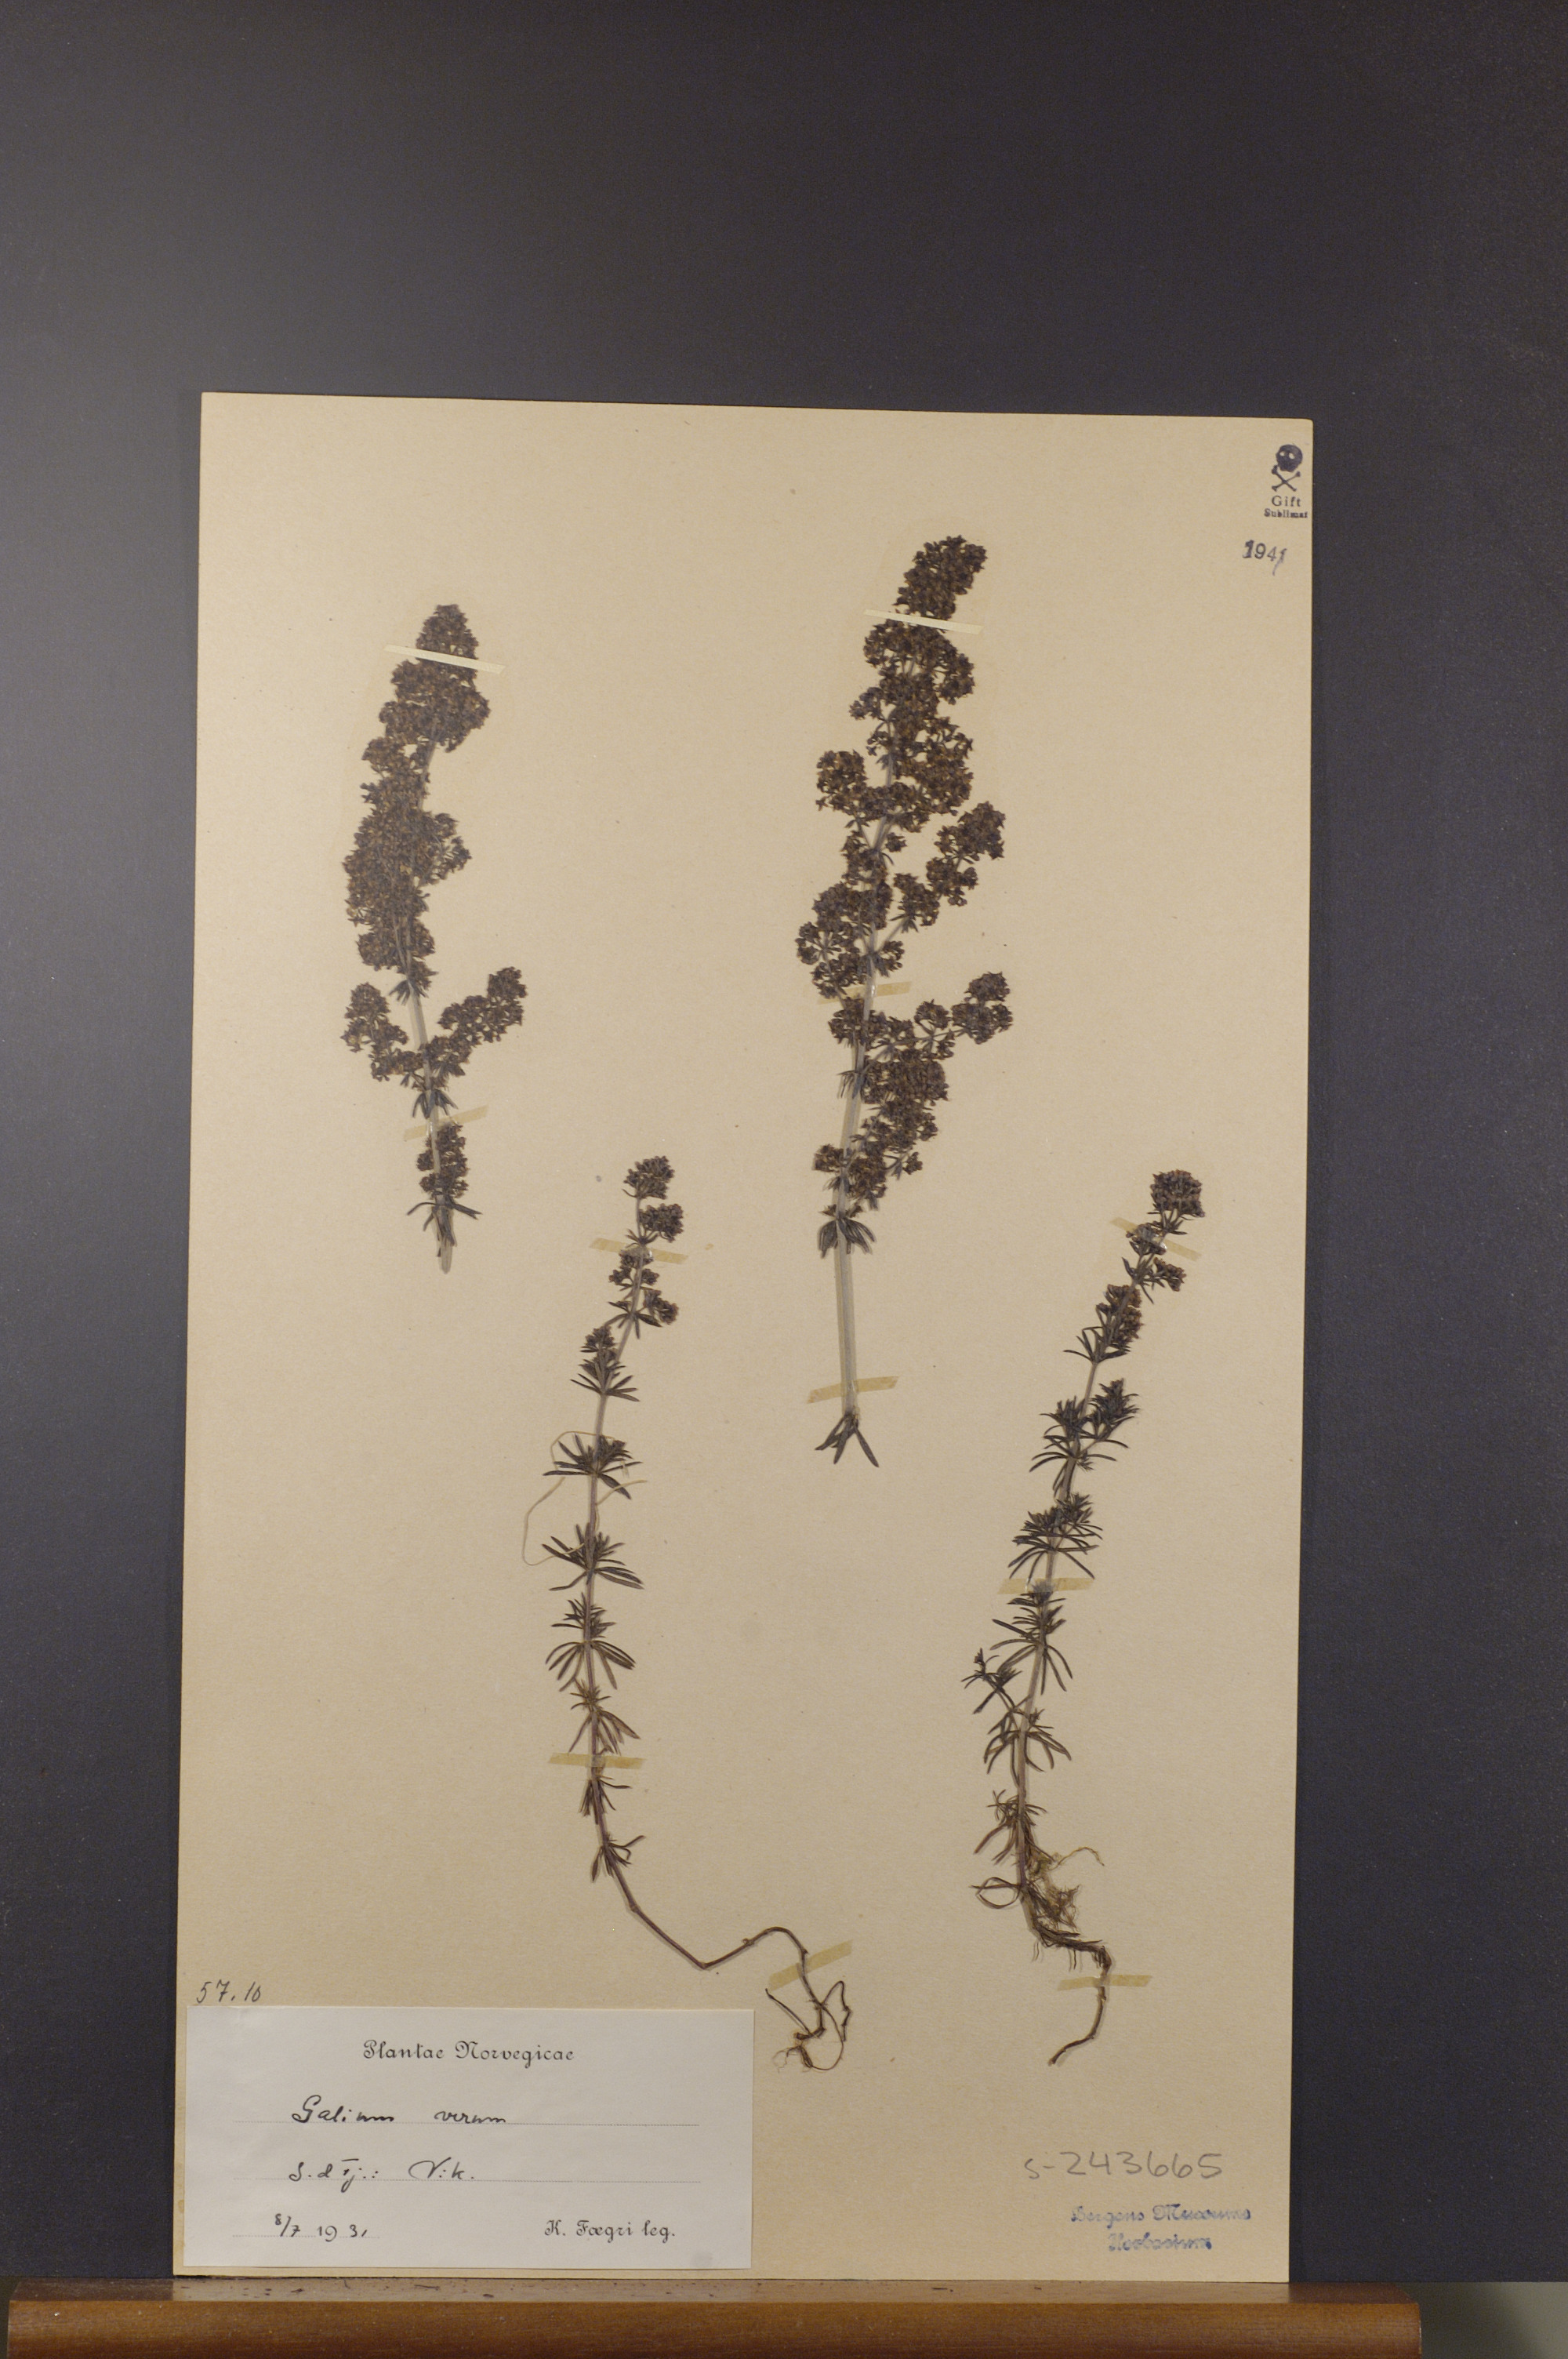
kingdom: Plantae
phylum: Tracheophyta
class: Magnoliopsida
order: Gentianales
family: Rubiaceae
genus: Galium
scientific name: Galium verum
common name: Lady's bedstraw
